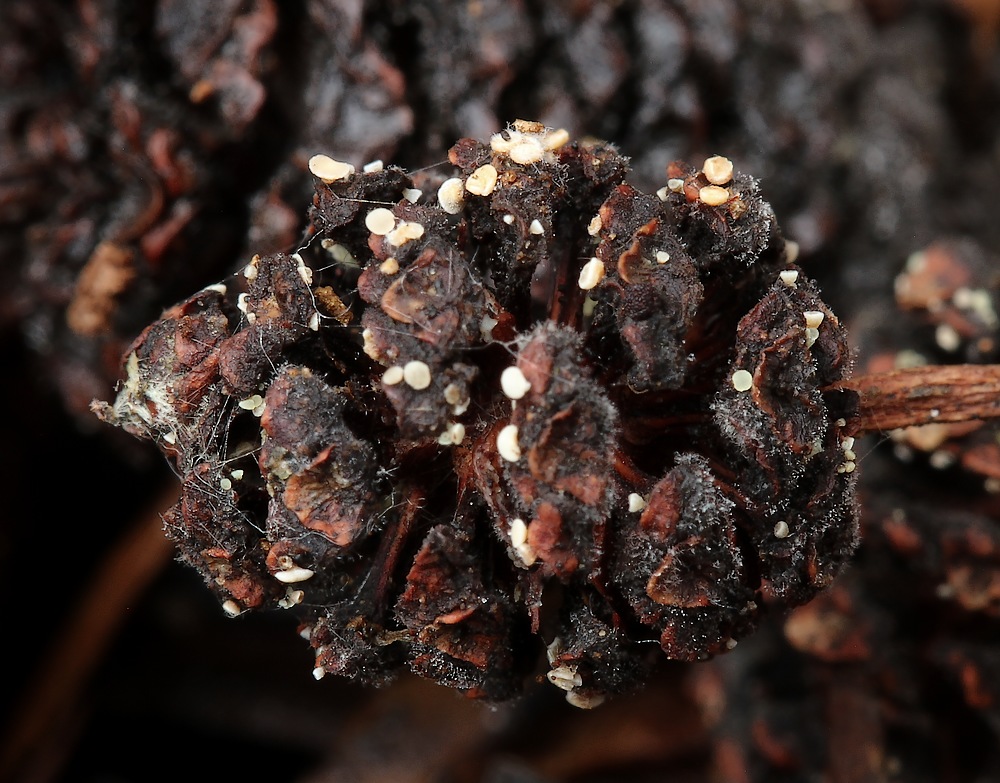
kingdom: Fungi
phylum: Ascomycota
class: Leotiomycetes
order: Helotiales
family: Pezizellaceae
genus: Calycina
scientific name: Calycina alniella
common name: ellekogle-stilkskive
